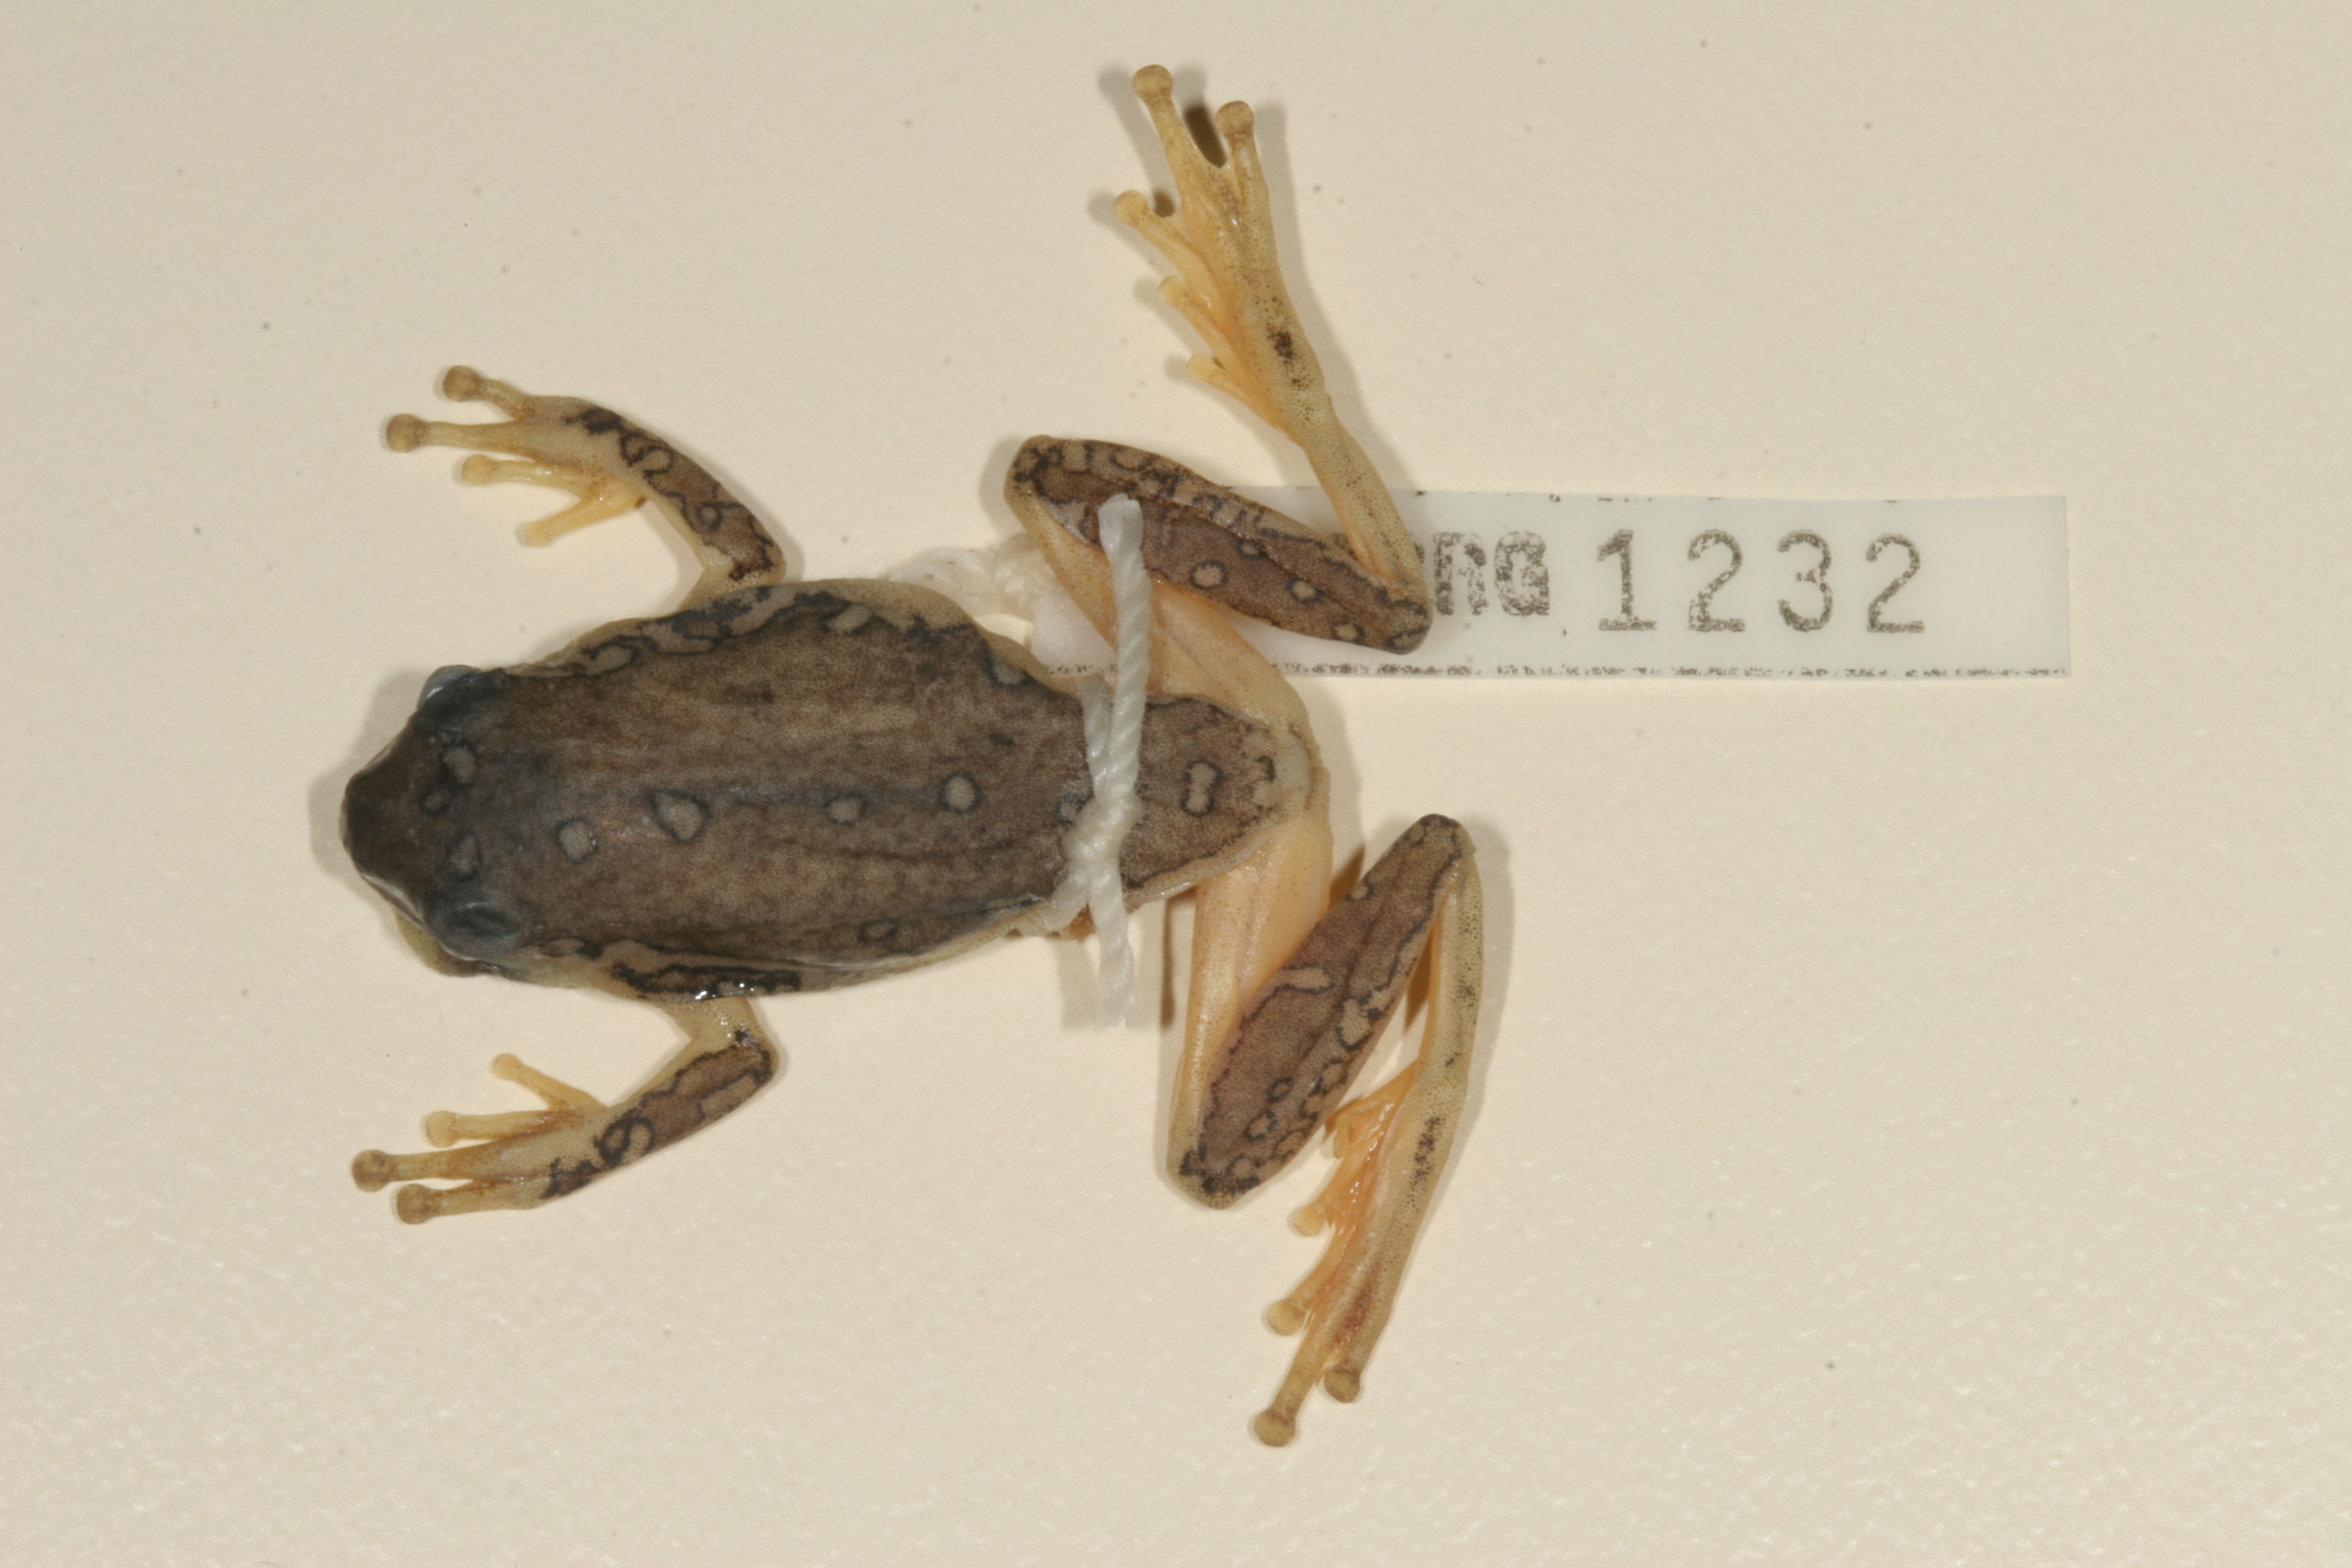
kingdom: Animalia
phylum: Chordata
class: Amphibia
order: Anura
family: Hyperoliidae
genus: Hyperolius
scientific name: Hyperolius marmoratus
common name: Painted reed frog
